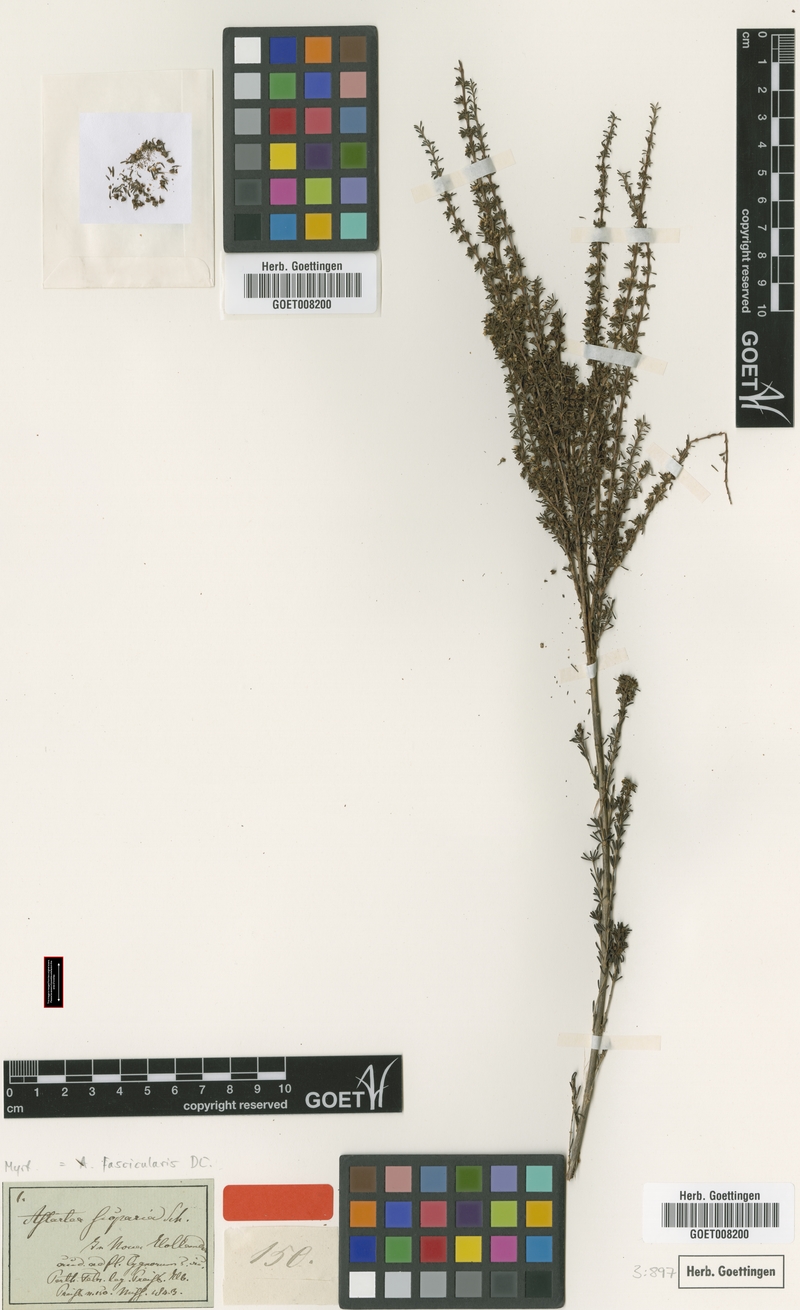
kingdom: Plantae
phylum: Tracheophyta
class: Magnoliopsida
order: Myrtales
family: Myrtaceae
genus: Astartea
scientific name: Astartea fascicularis
